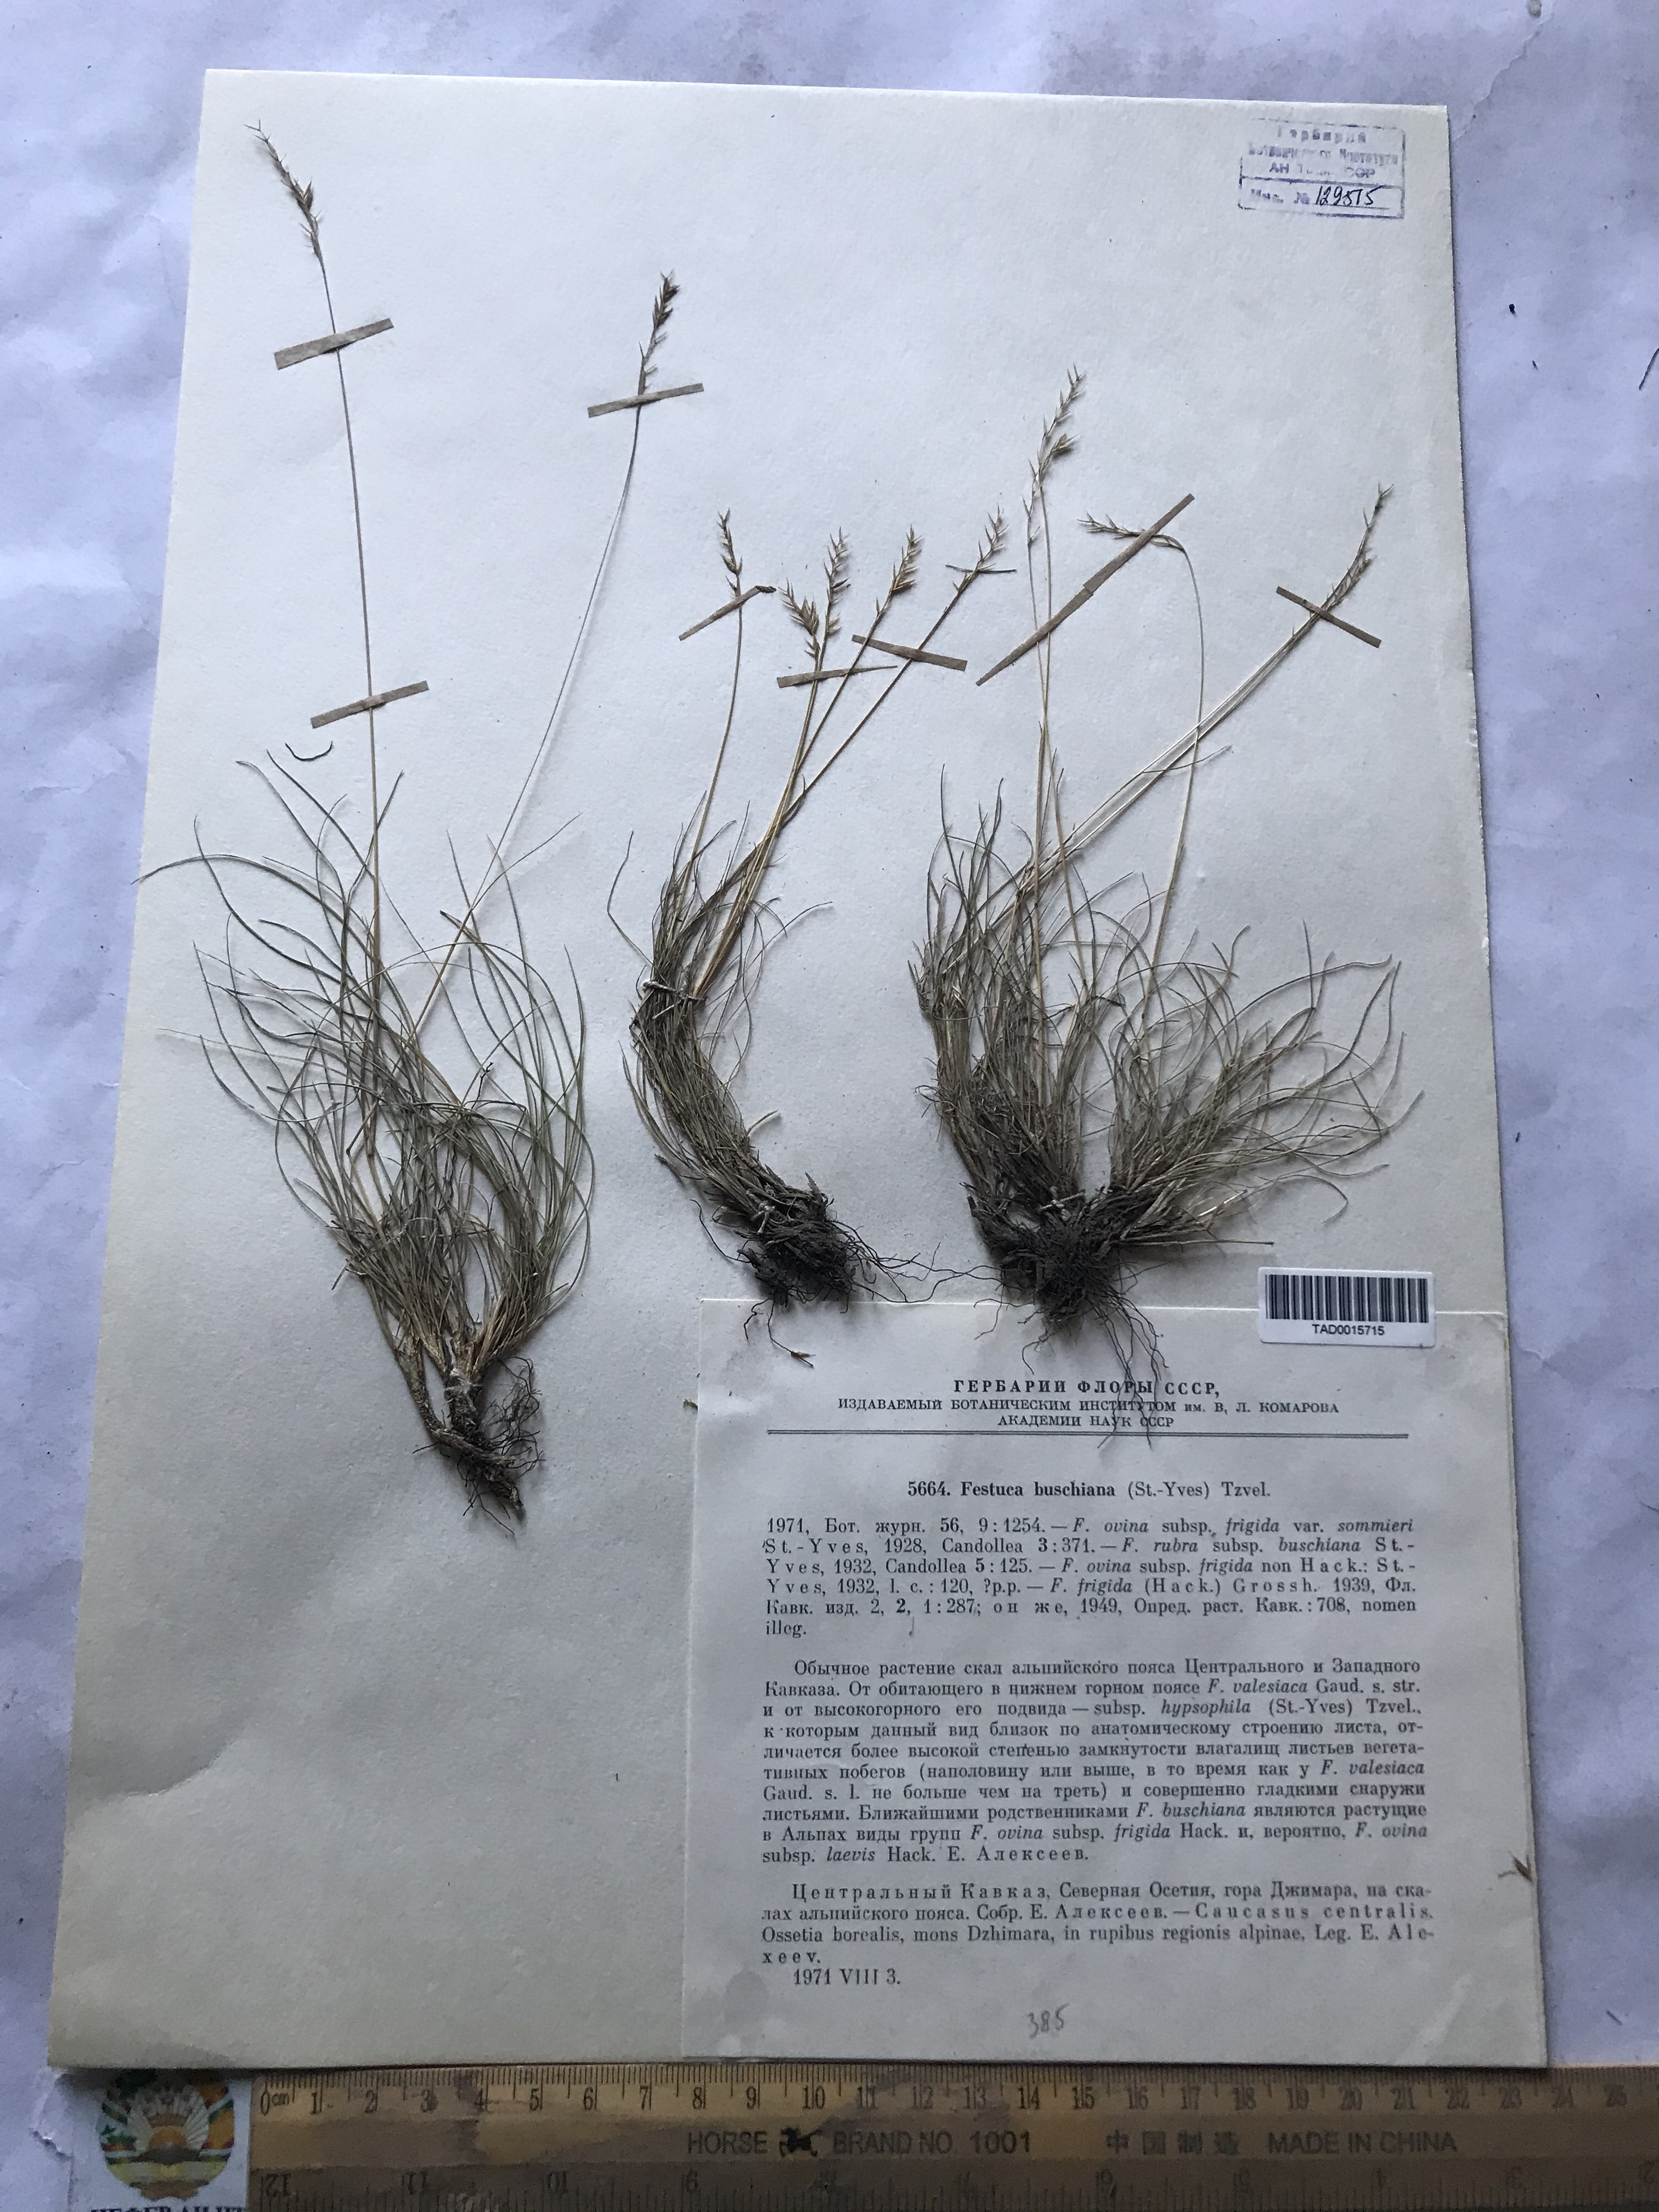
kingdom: Plantae
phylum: Tracheophyta
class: Liliopsida
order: Poales
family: Poaceae
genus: Festuca
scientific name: Festuca buschiana
